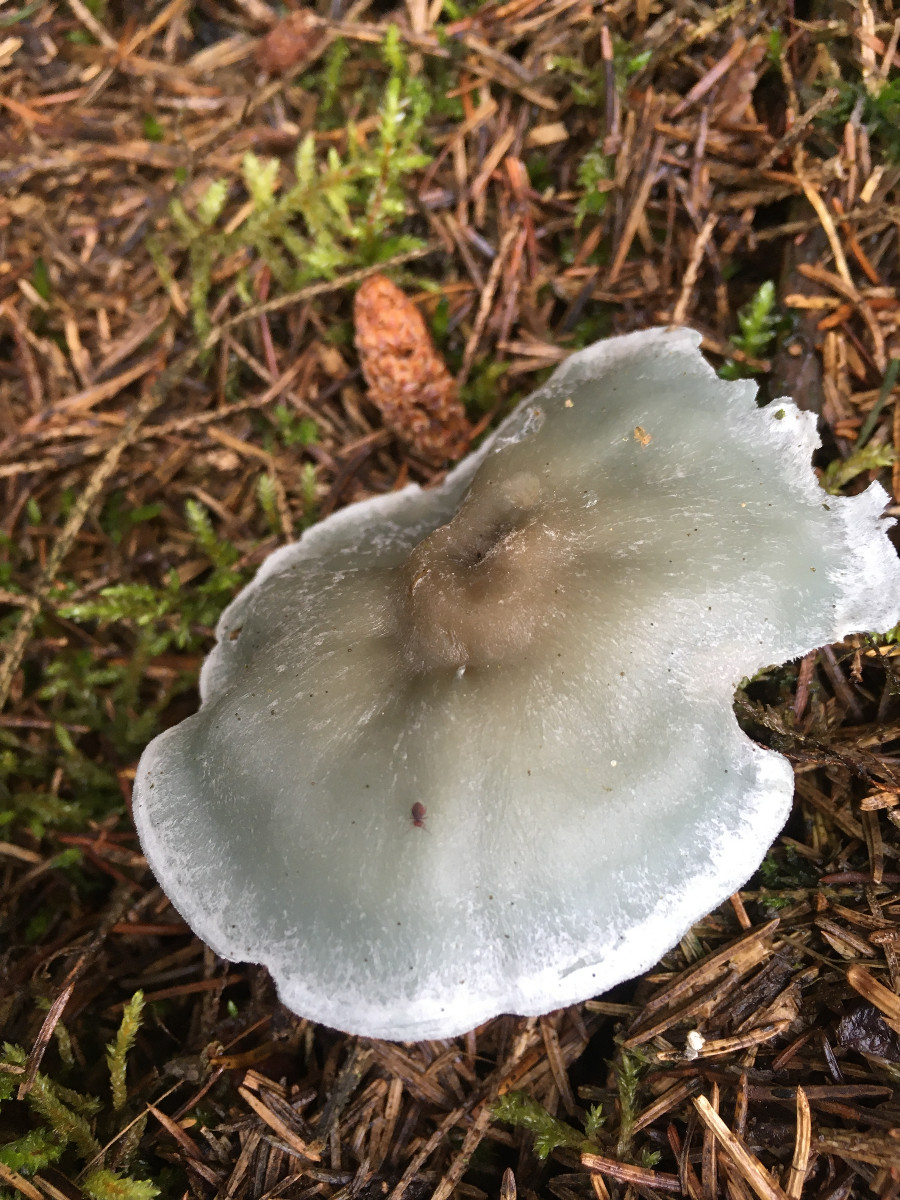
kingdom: Fungi
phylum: Basidiomycota
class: Agaricomycetes
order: Agaricales
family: Tricholomataceae
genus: Clitocybe
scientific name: Clitocybe odora
